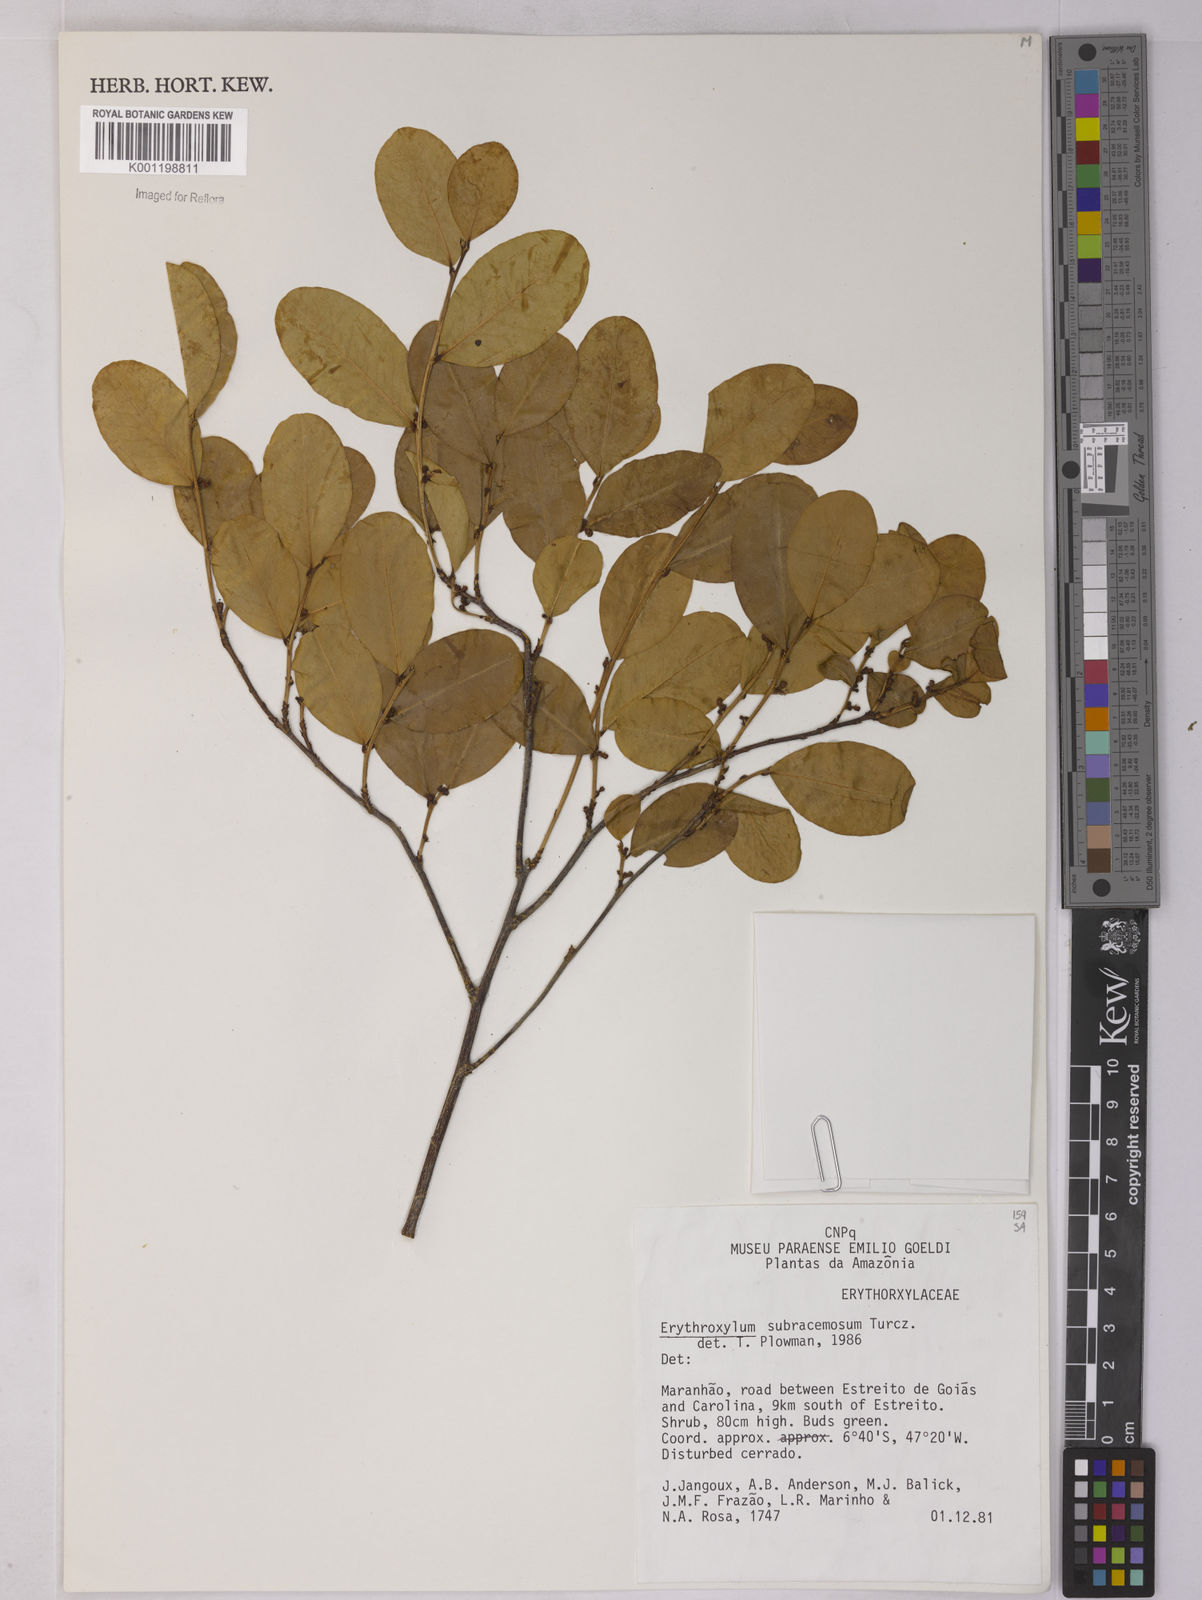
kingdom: Plantae
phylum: Tracheophyta
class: Magnoliopsida
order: Malpighiales
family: Erythroxylaceae
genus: Erythroxylum
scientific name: Erythroxylum subracemosum
